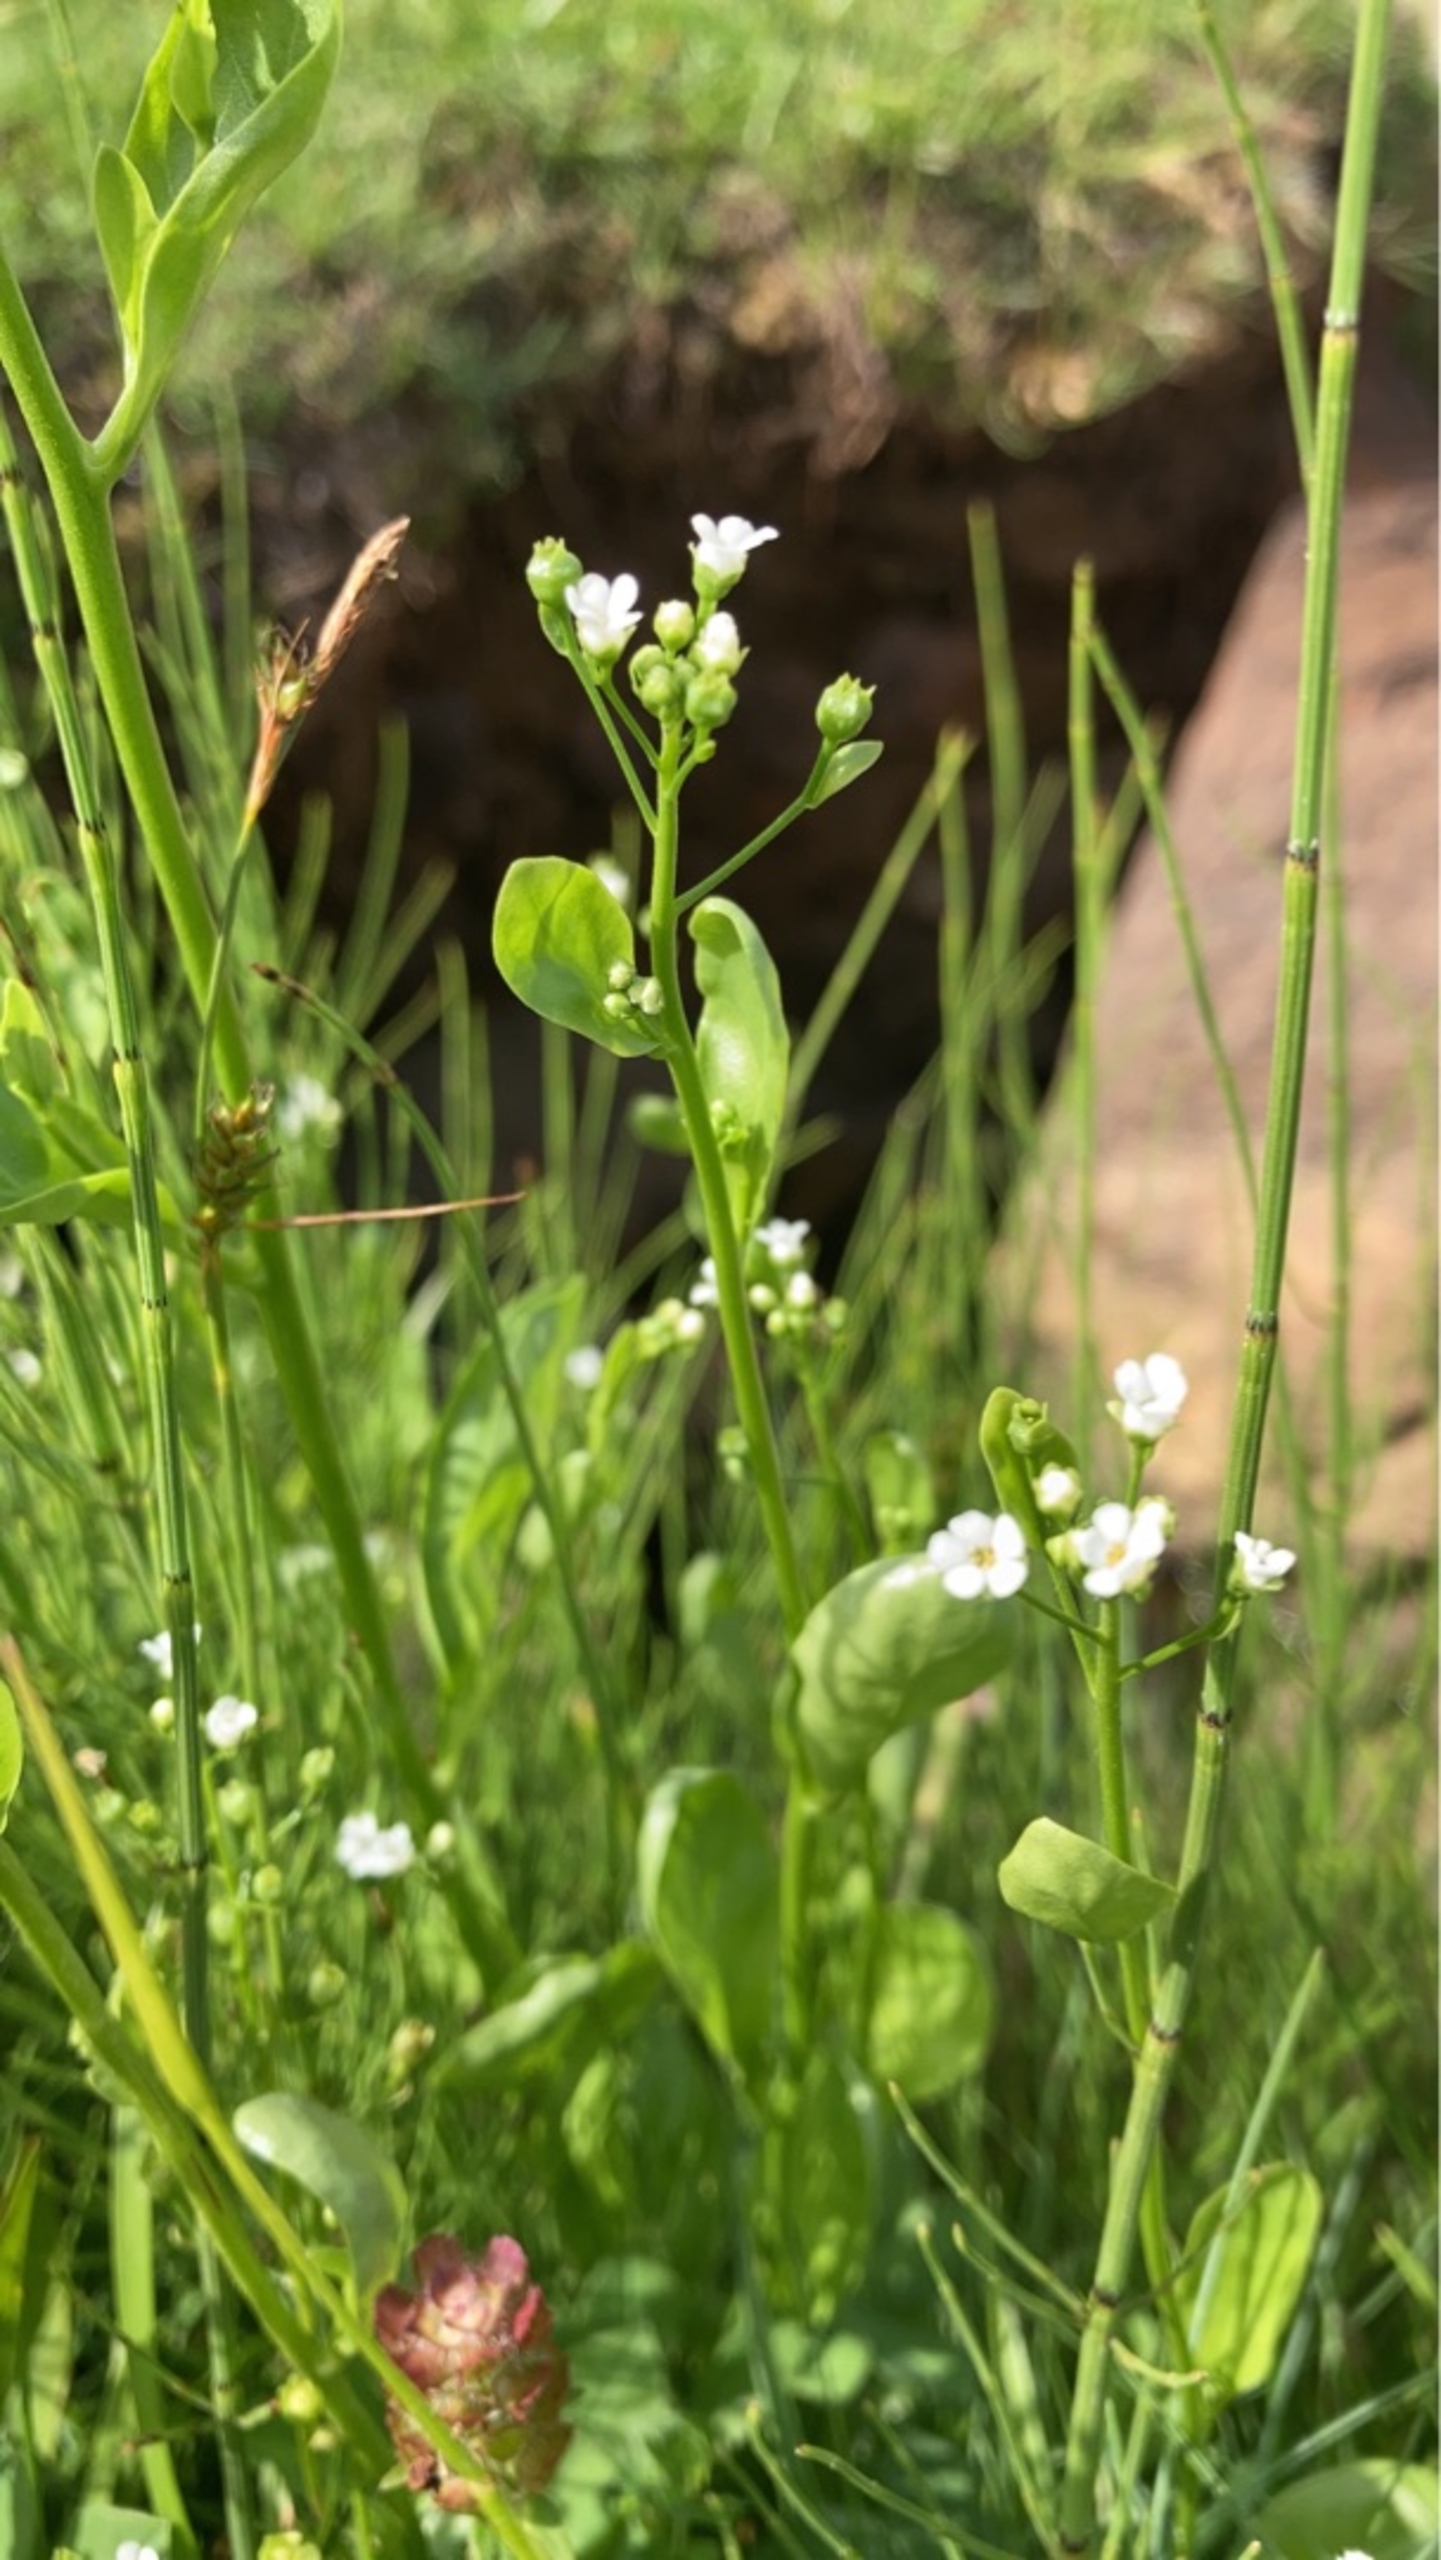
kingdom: Plantae
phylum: Tracheophyta
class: Magnoliopsida
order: Ericales
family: Primulaceae
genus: Samolus
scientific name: Samolus valerandi
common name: Samel
